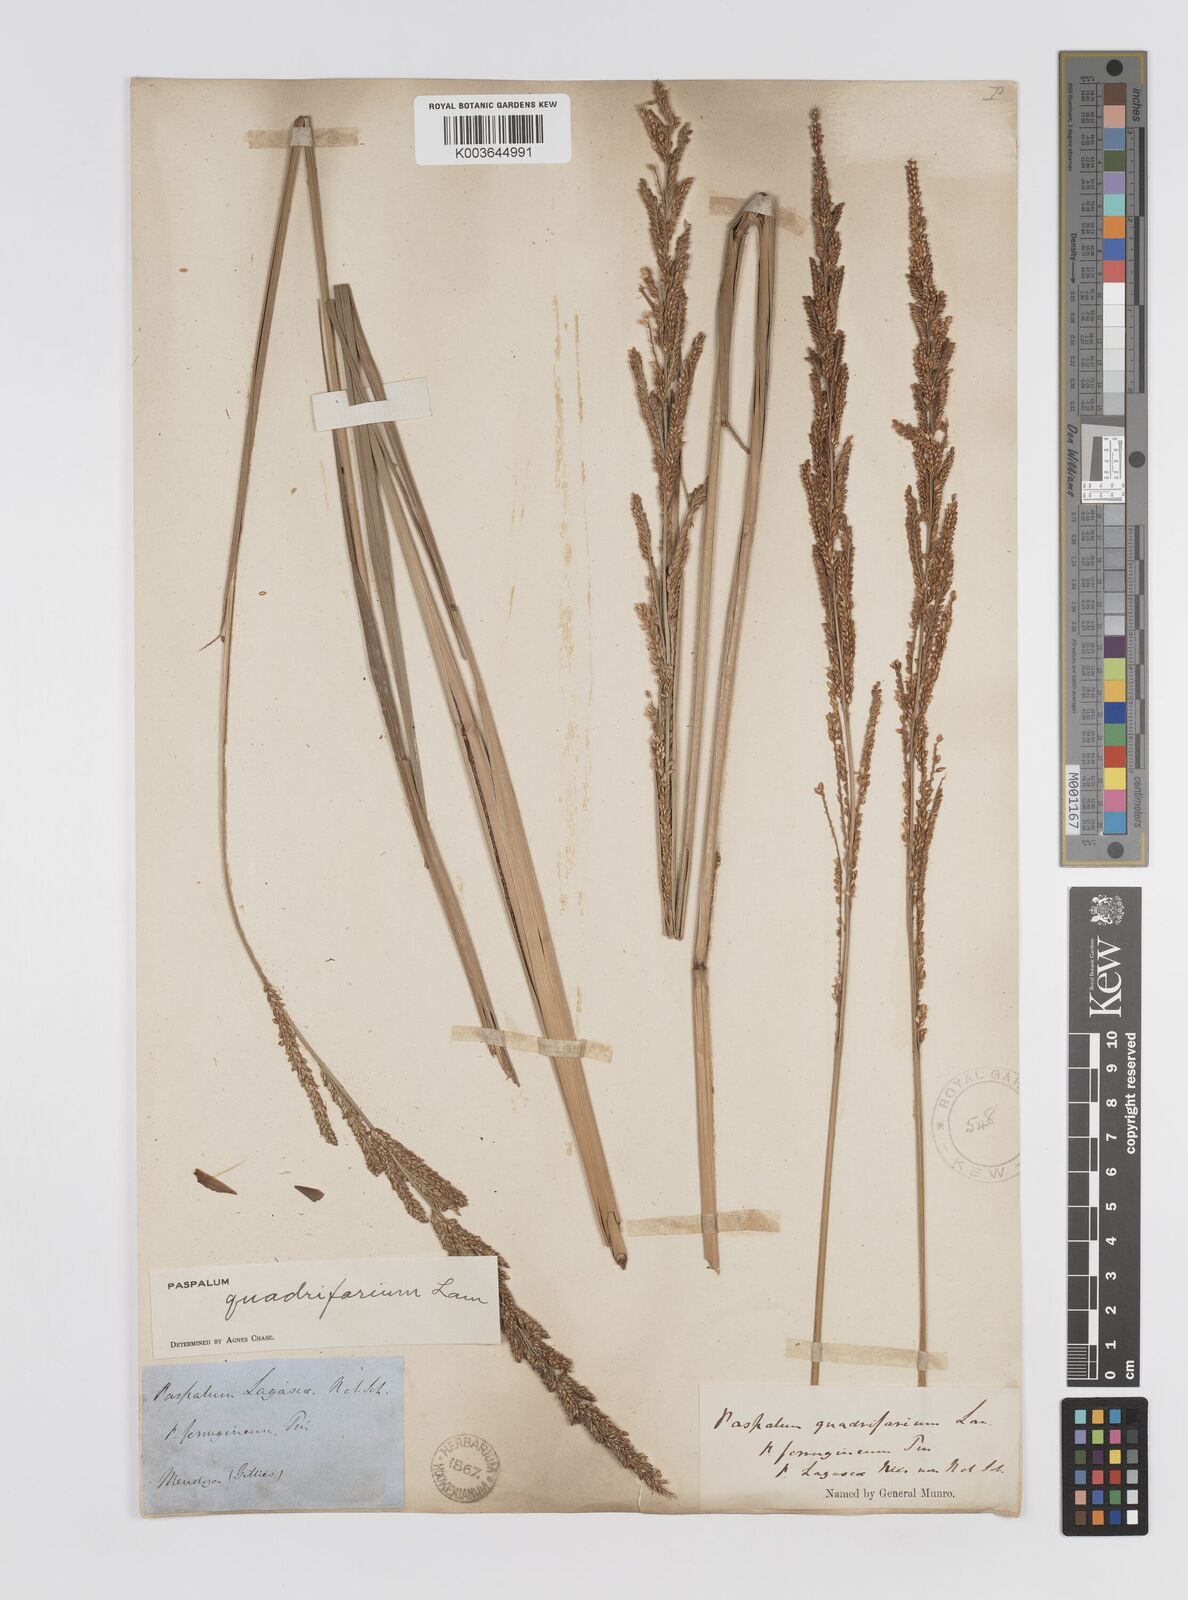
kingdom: Plantae
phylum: Tracheophyta
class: Liliopsida
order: Poales
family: Poaceae
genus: Paspalum
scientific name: Paspalum quadrifarium
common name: Tussock paspalum
